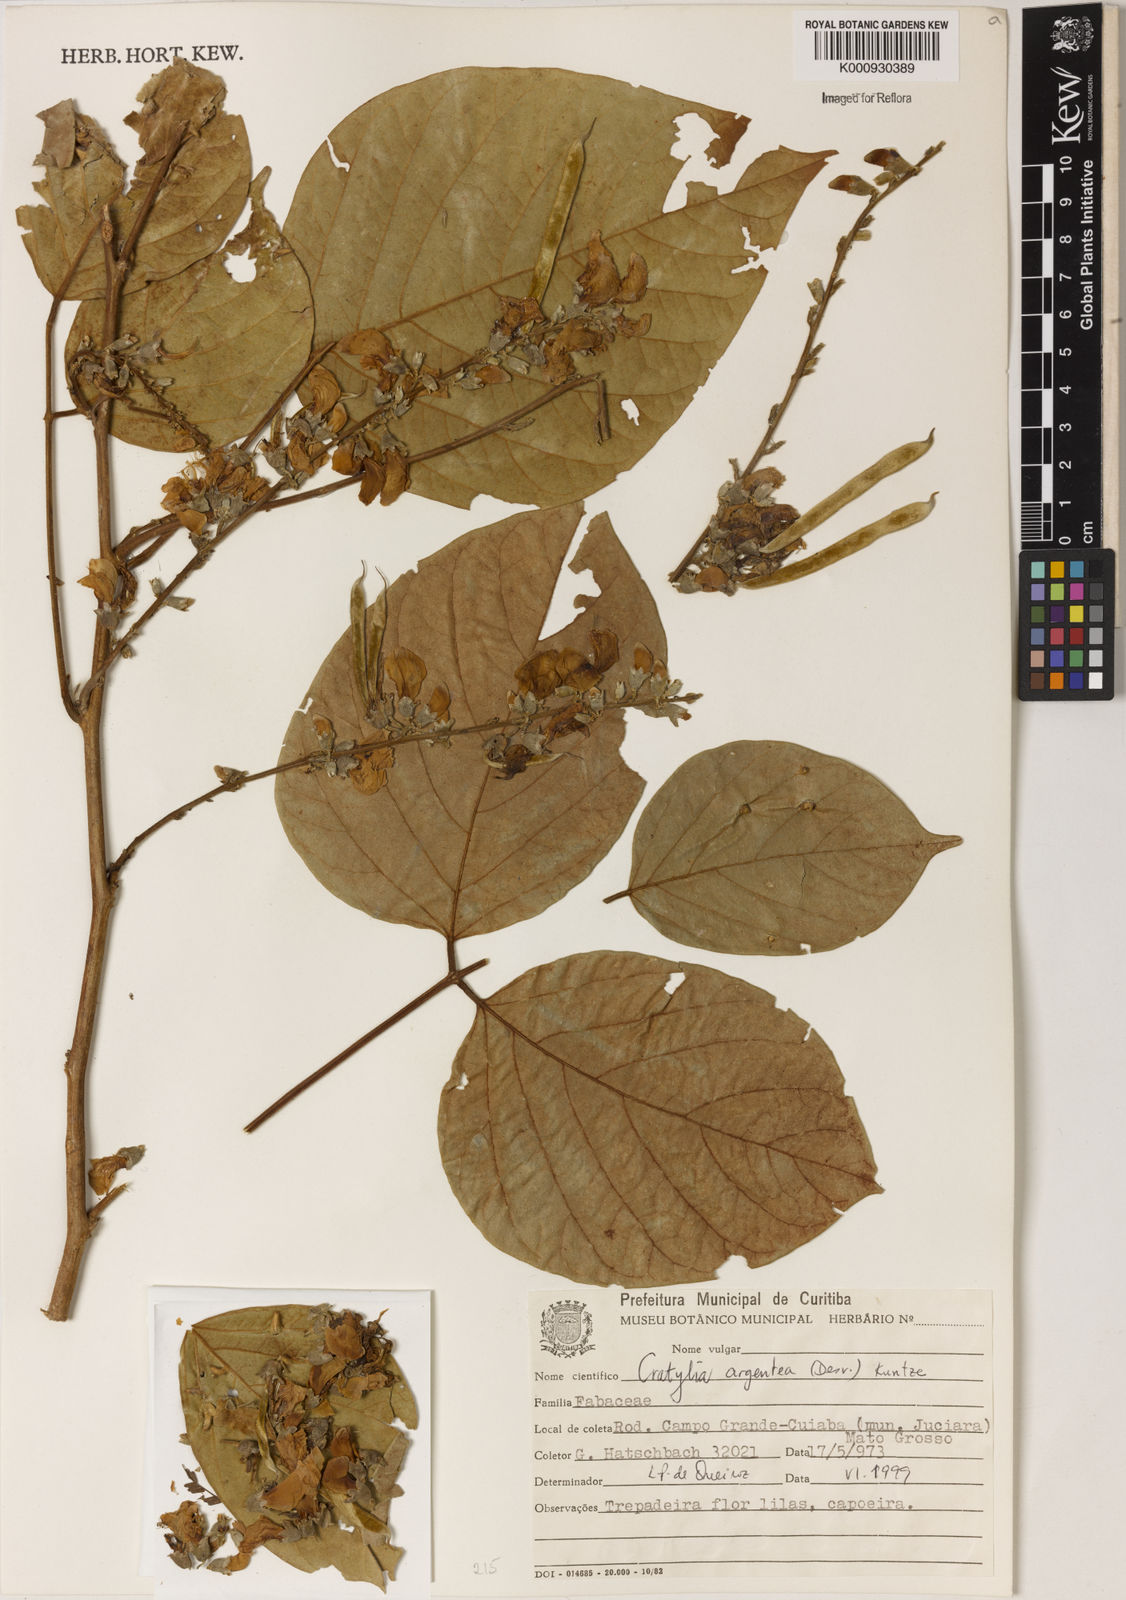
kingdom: Plantae
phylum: Tracheophyta
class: Magnoliopsida
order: Fabales
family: Fabaceae
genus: Cratylia
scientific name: Cratylia argentea
